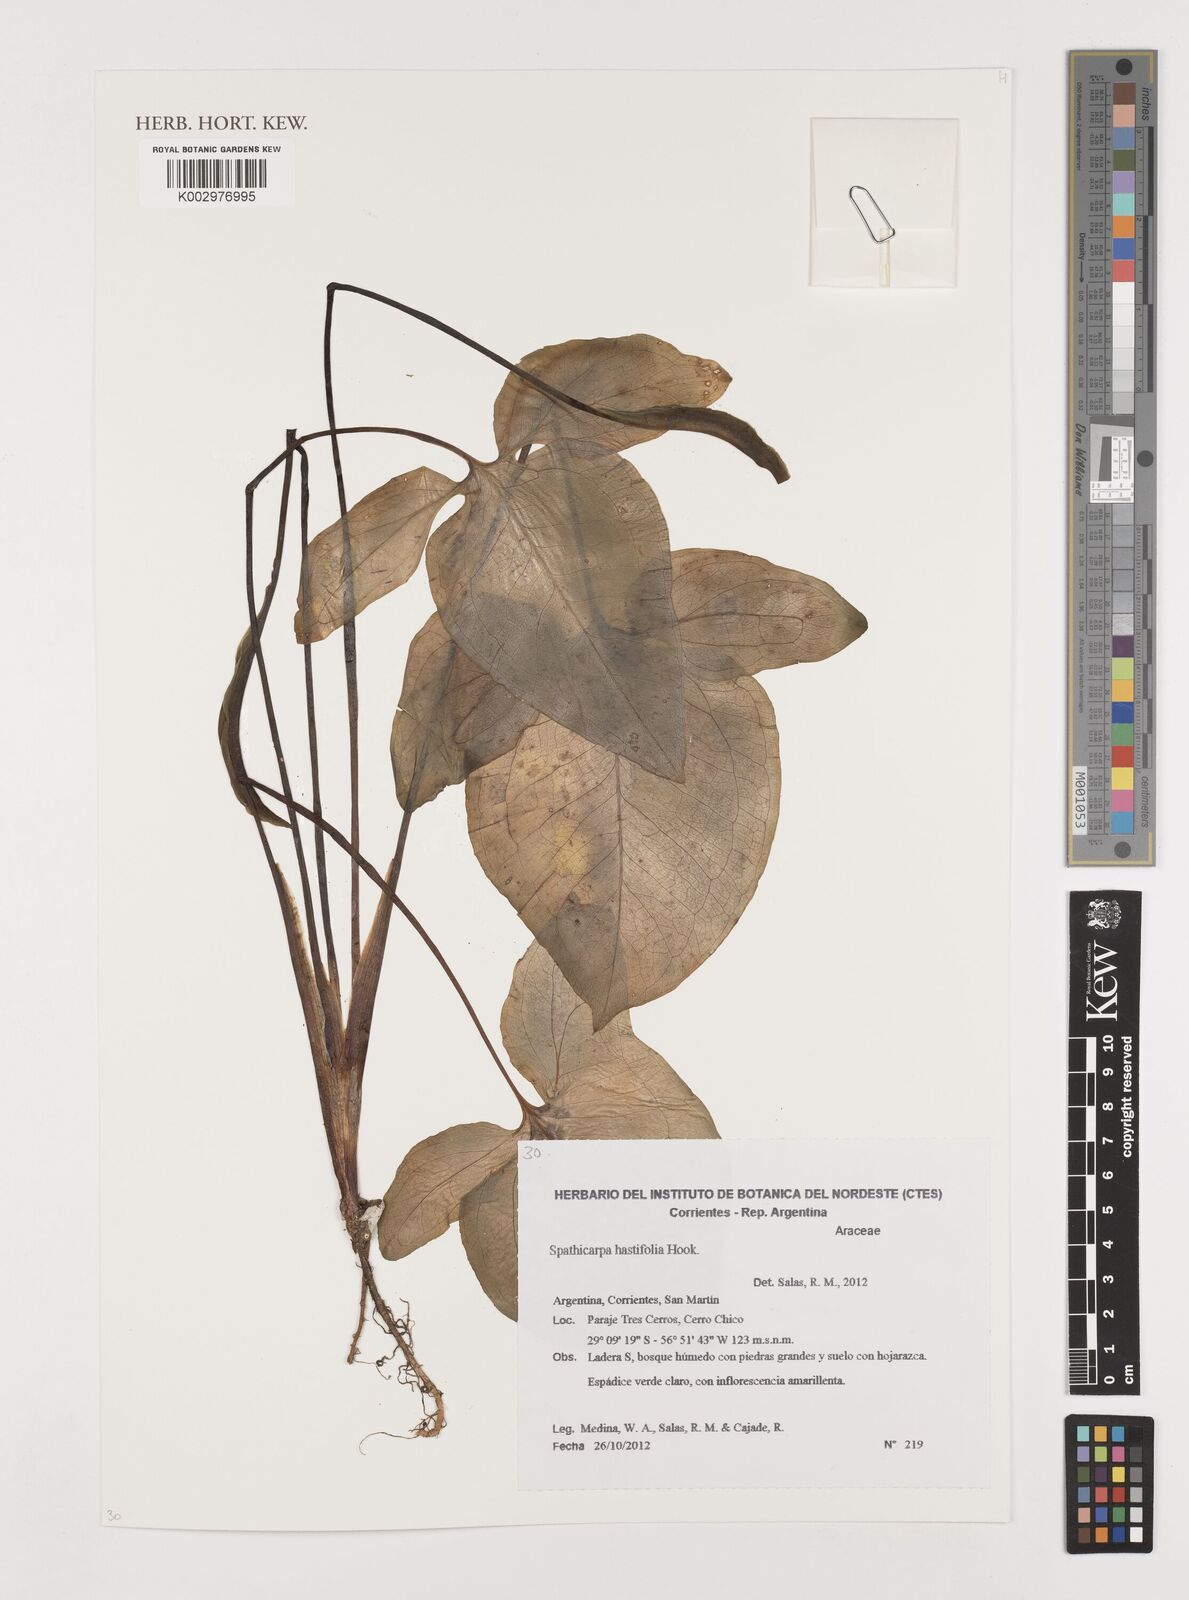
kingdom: Plantae
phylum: Tracheophyta
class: Liliopsida
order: Alismatales
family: Araceae
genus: Spathicarpa
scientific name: Spathicarpa hastifolia
